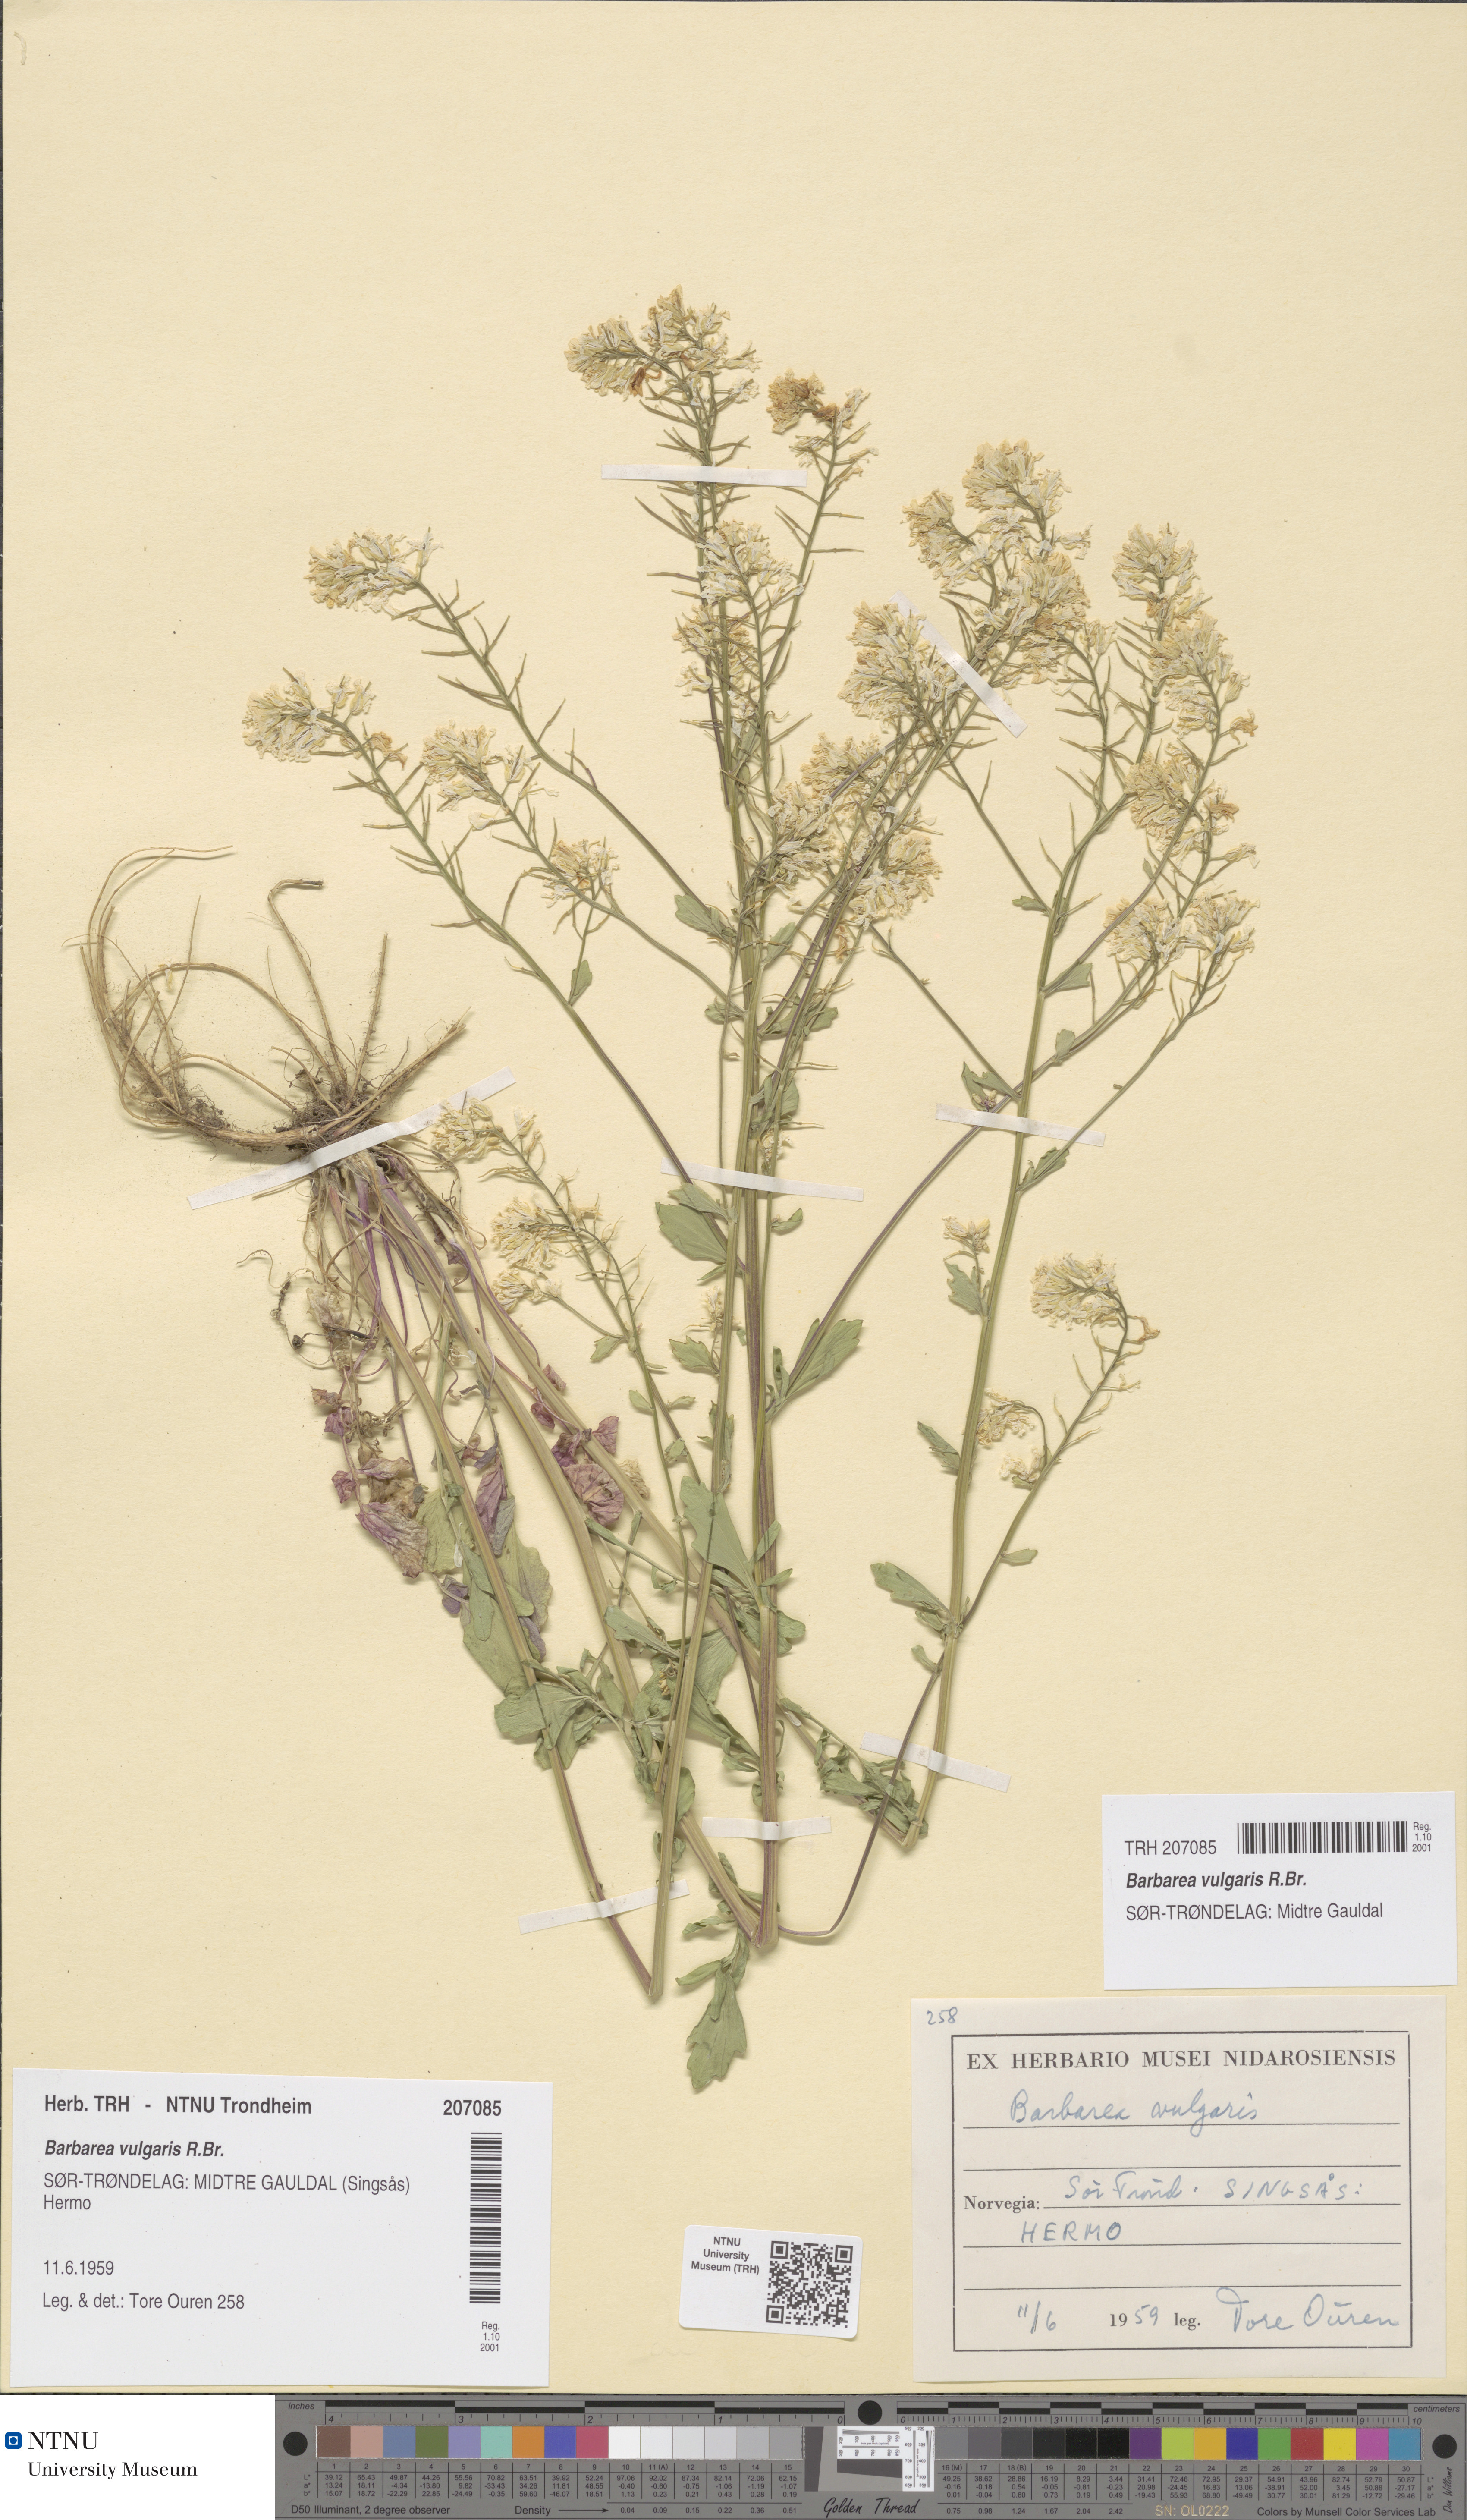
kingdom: Plantae
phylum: Tracheophyta
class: Magnoliopsida
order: Brassicales
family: Brassicaceae
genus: Barbarea
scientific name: Barbarea vulgaris
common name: Cressy-greens
